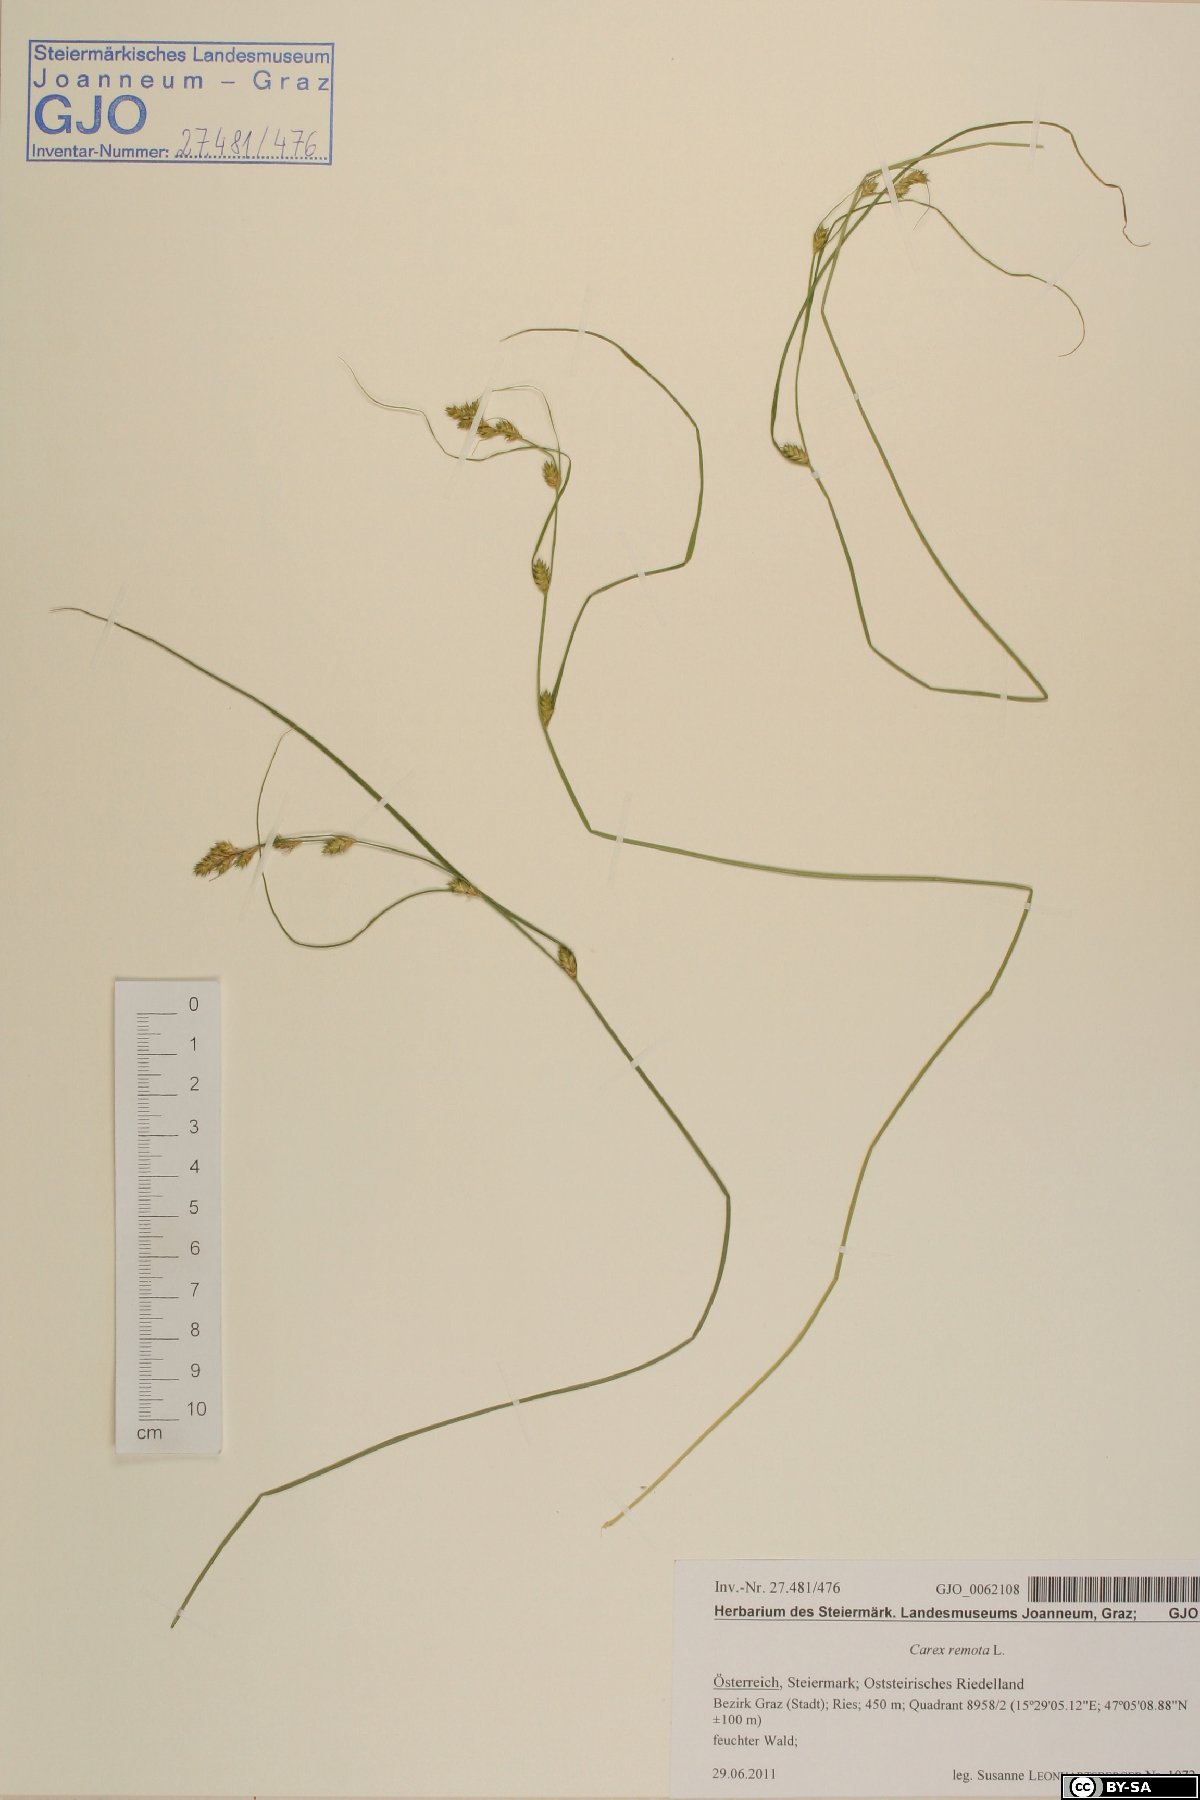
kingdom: Plantae
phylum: Tracheophyta
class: Liliopsida
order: Poales
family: Cyperaceae
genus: Carex
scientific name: Carex remota
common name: Remote sedge
